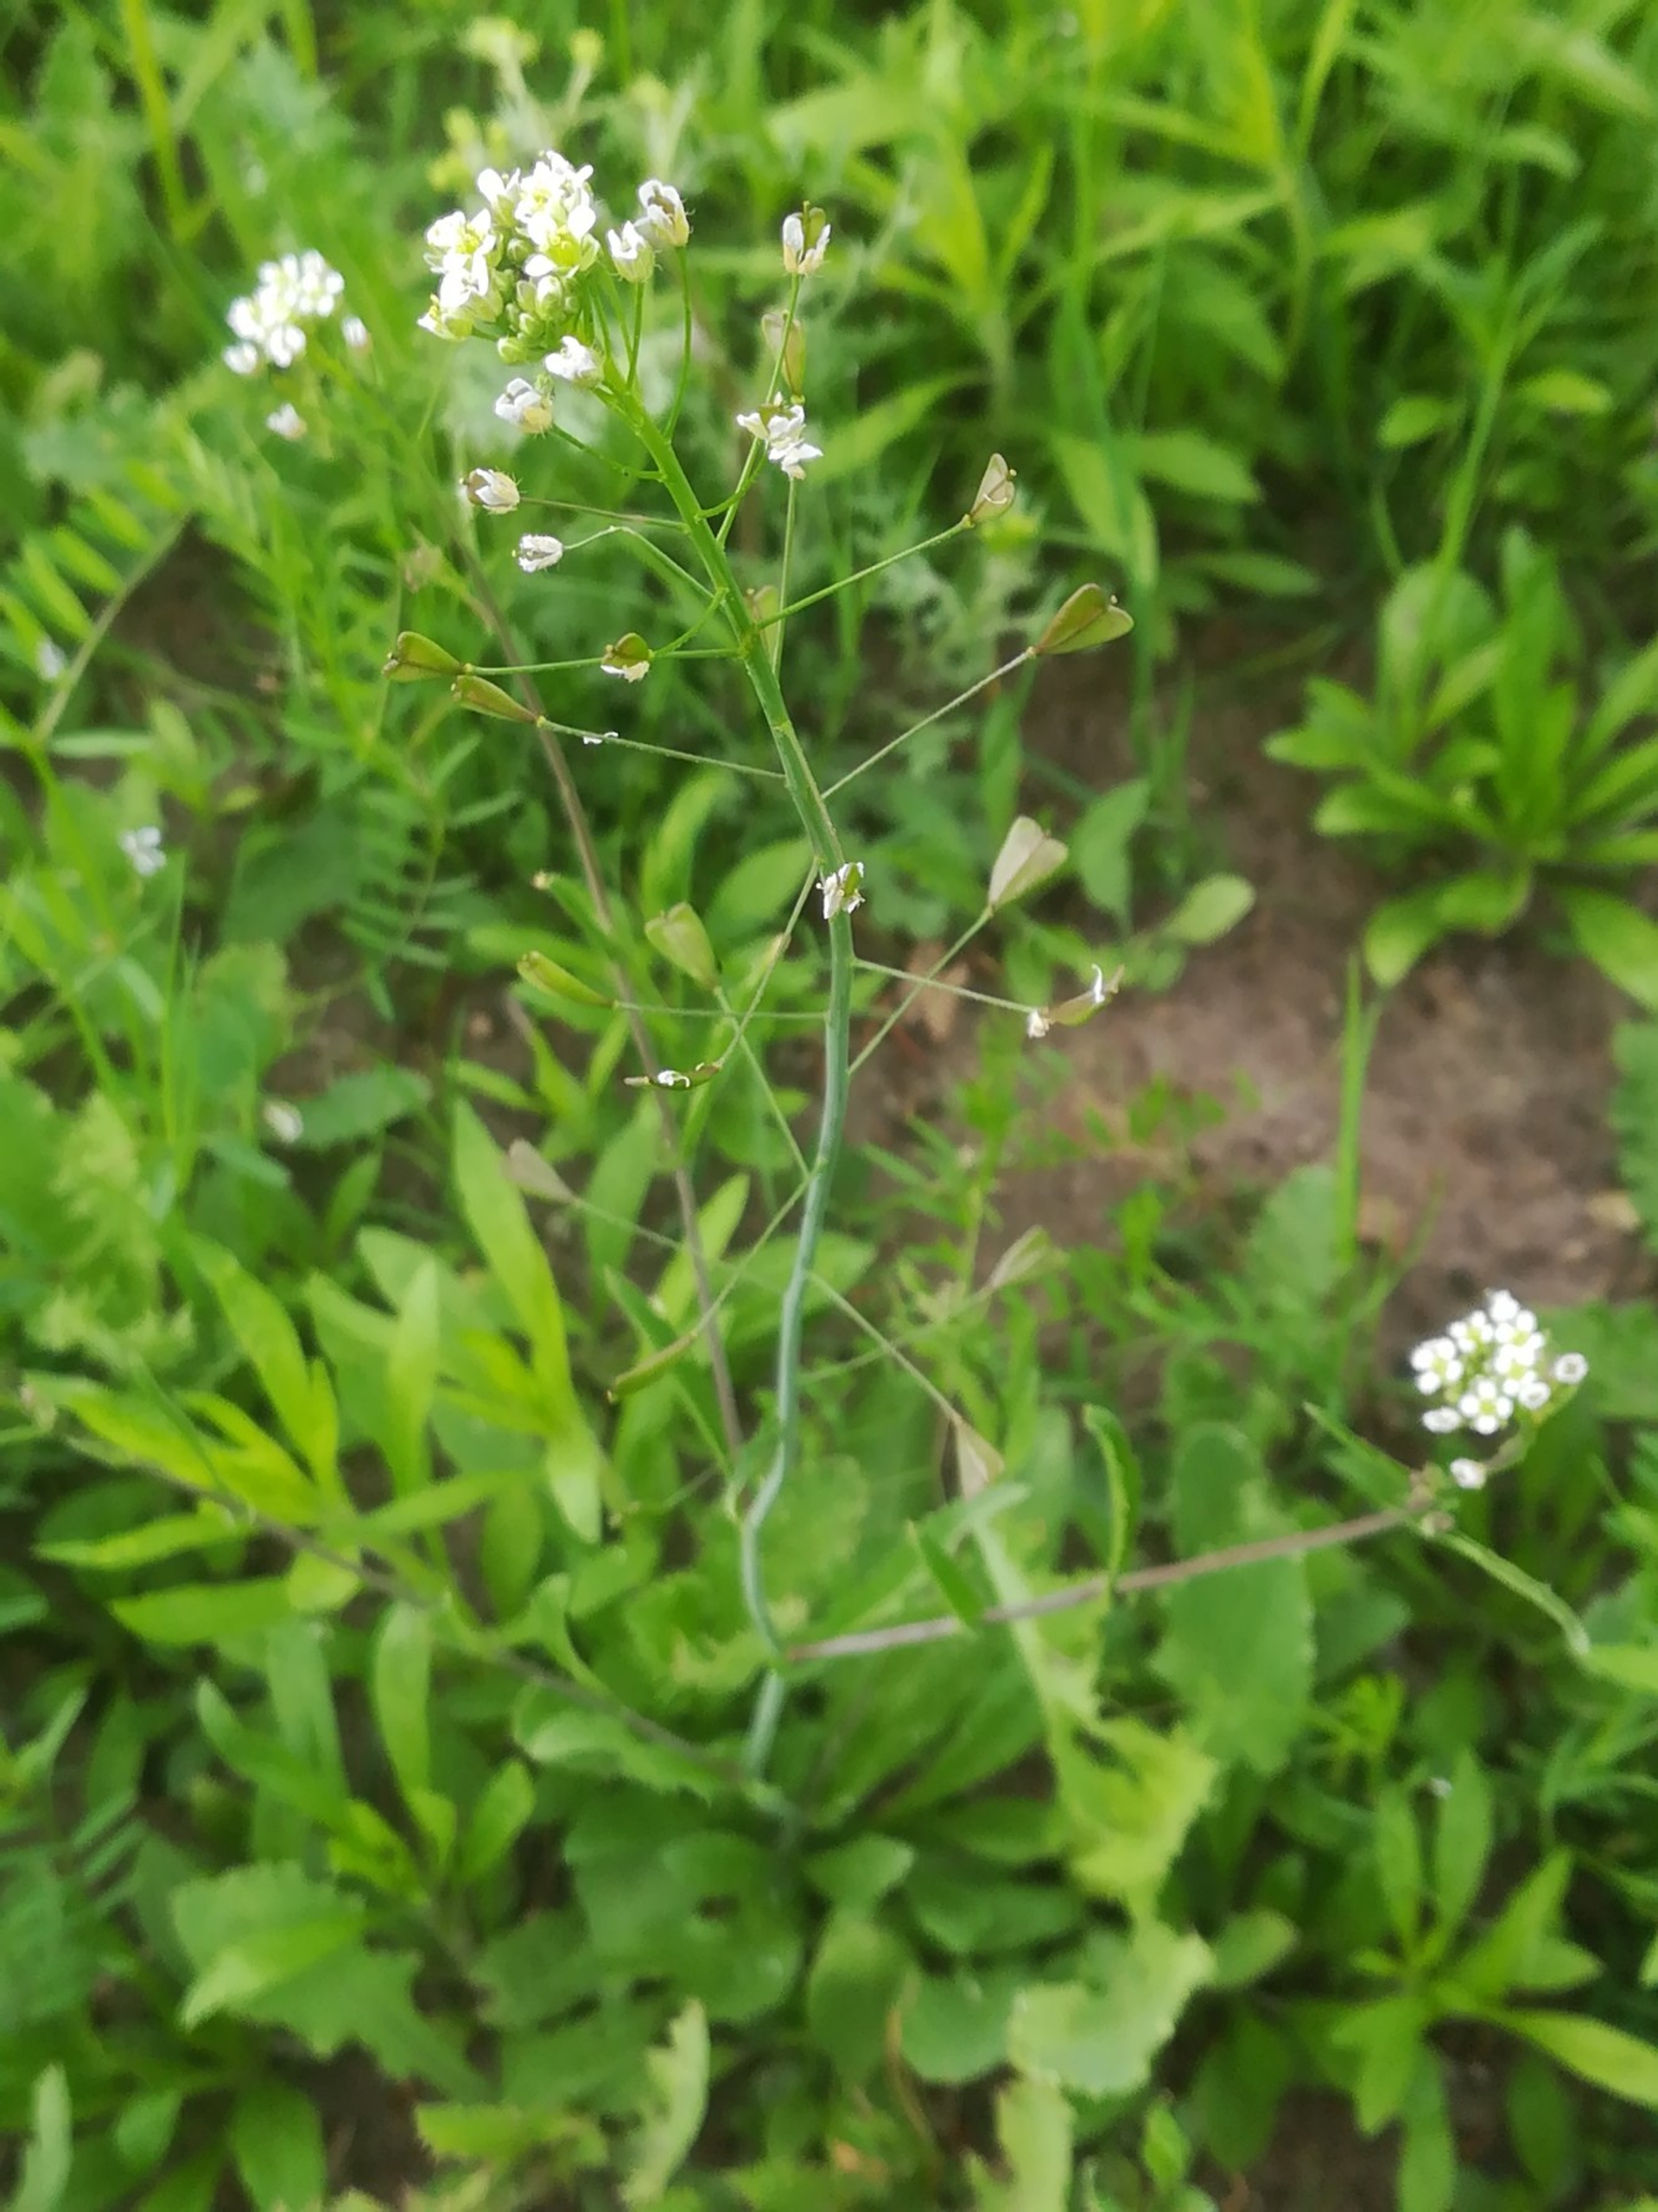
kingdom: Plantae
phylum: Tracheophyta
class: Magnoliopsida
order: Brassicales
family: Brassicaceae
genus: Capsella
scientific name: Capsella bursa-pastoris
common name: Hyrdetaske
